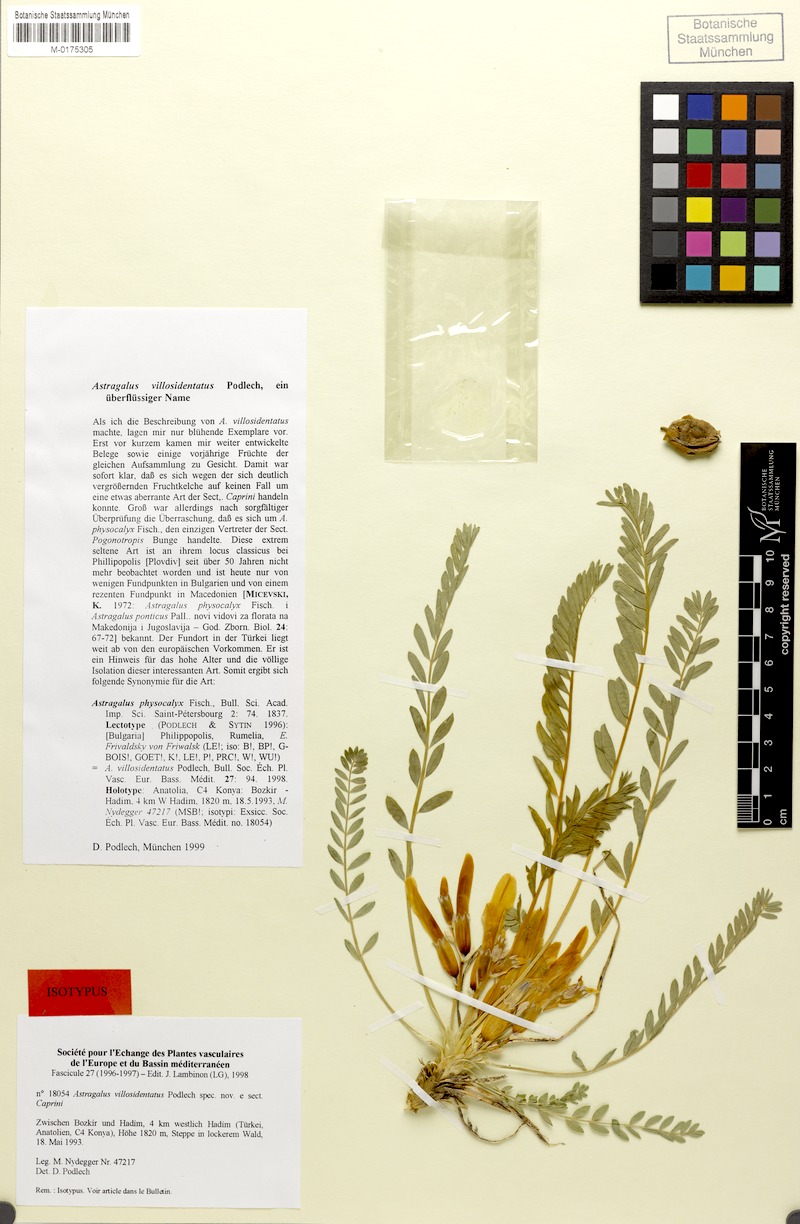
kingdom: Plantae
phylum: Tracheophyta
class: Magnoliopsida
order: Fabales
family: Fabaceae
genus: Astragalus
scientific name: Astragalus physocalyx
